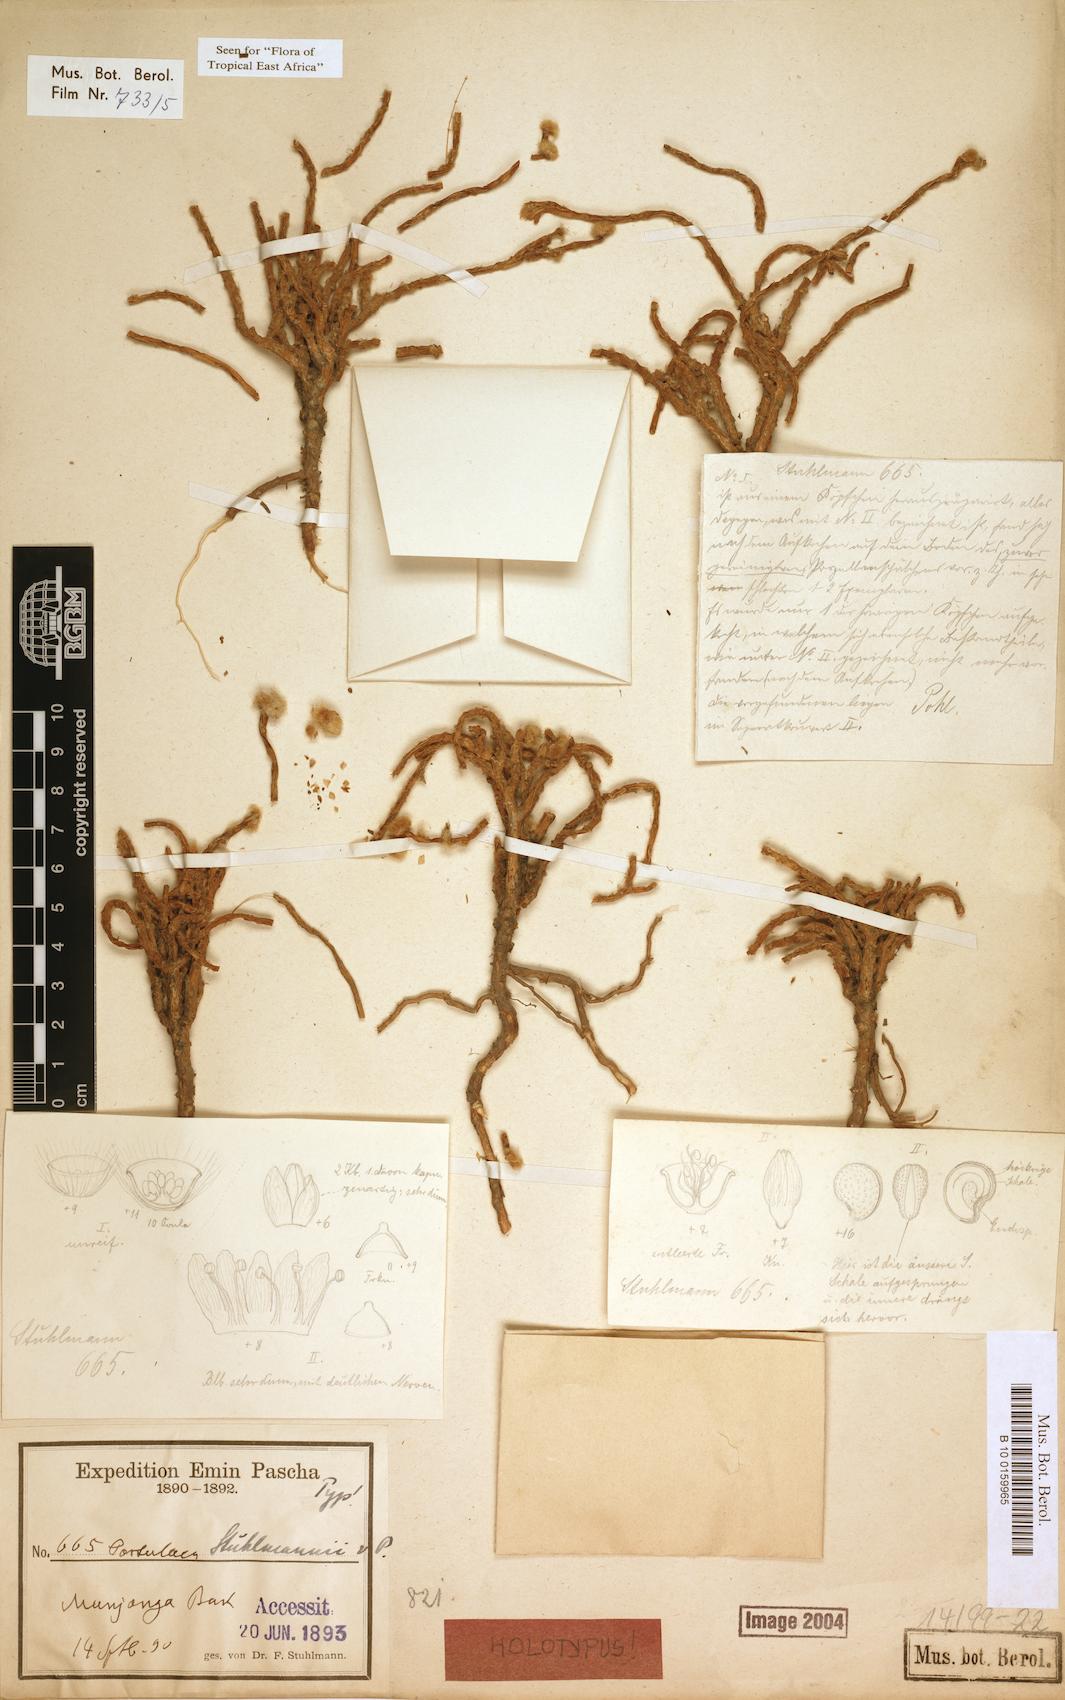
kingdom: Plantae
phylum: Tracheophyta
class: Magnoliopsida
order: Caryophyllales
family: Portulacaceae
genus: Portulaca
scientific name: Portulaca stuhlmannii
